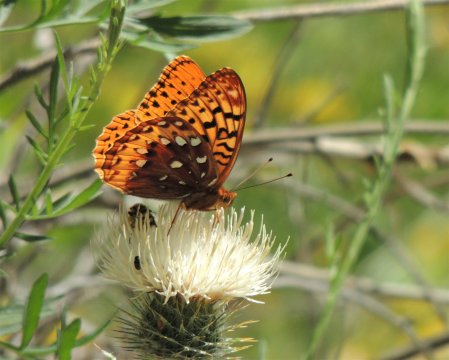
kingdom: Animalia
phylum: Arthropoda
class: Insecta
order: Lepidoptera
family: Nymphalidae
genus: Speyeria
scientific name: Speyeria cybele
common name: Great Spangled Fritillary
